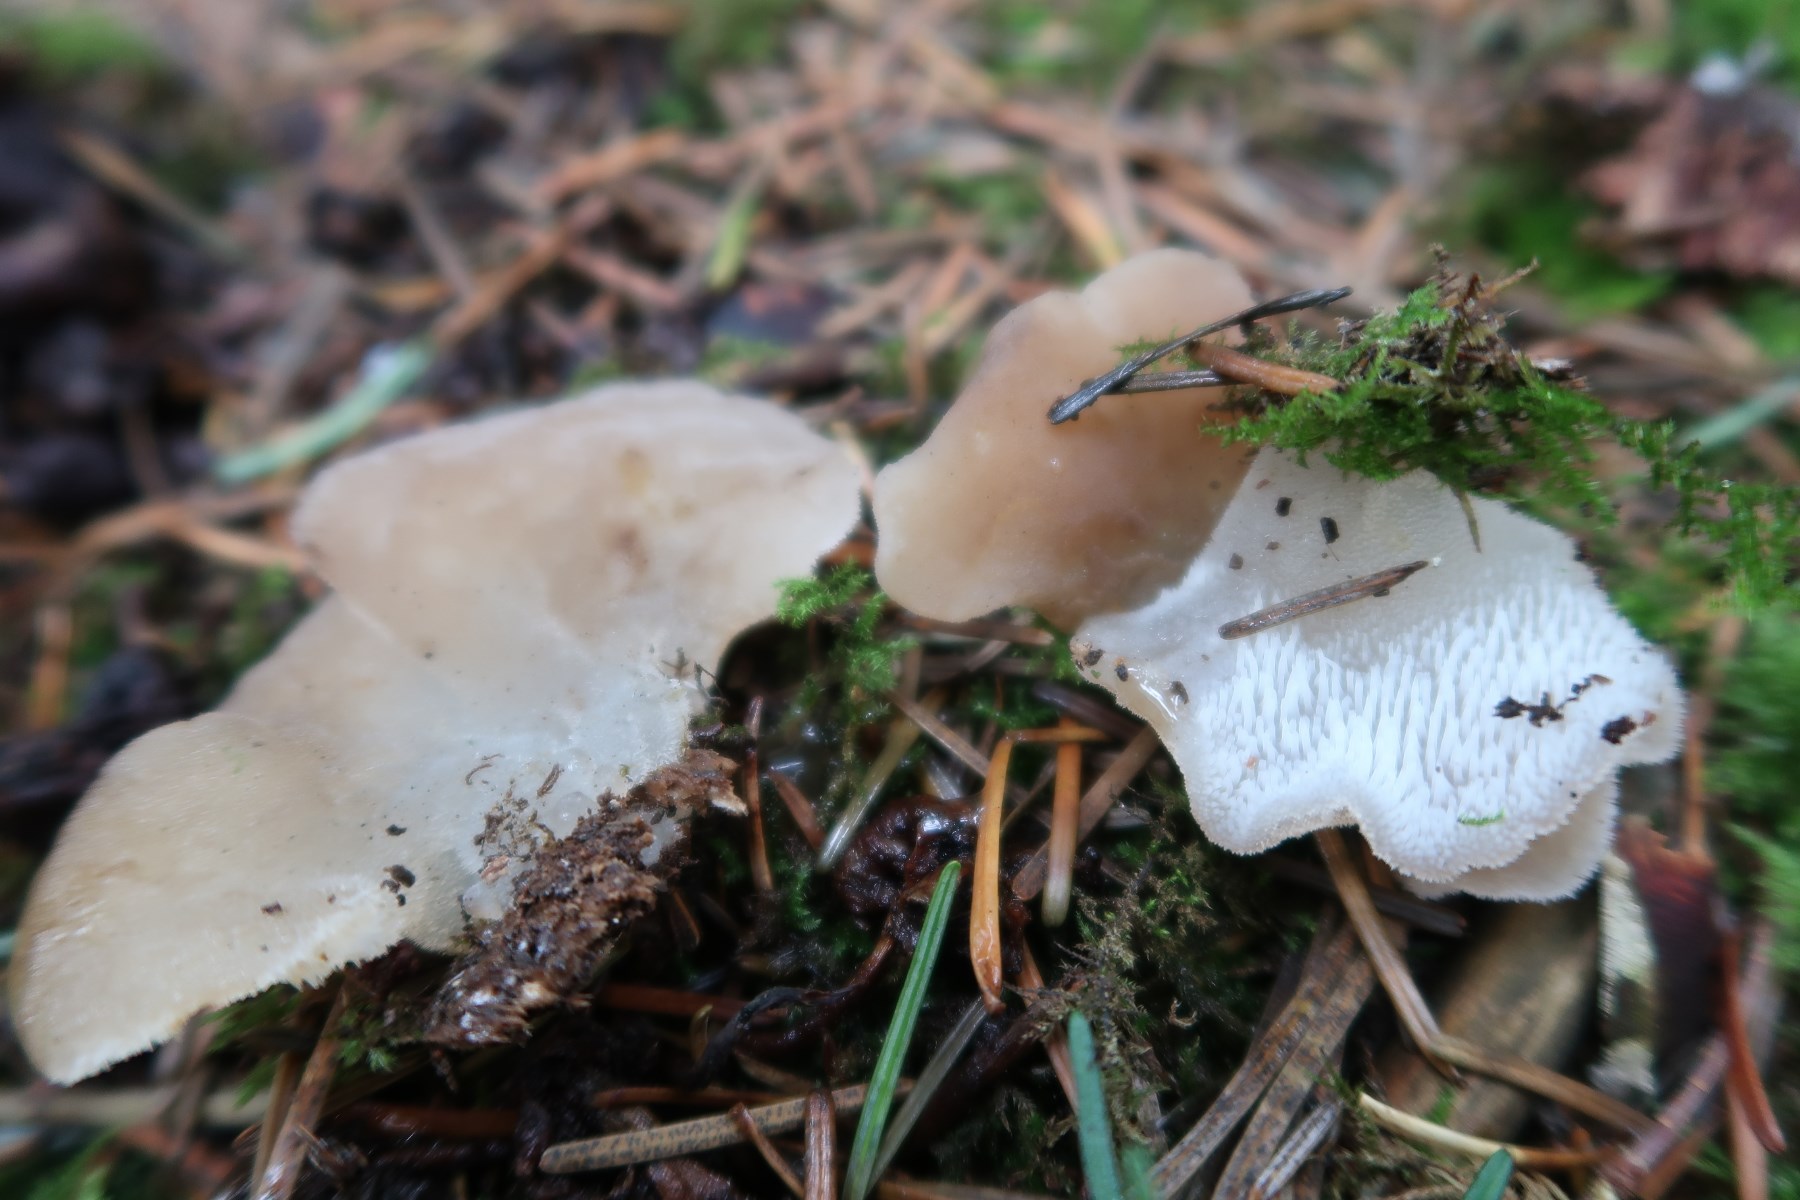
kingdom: Fungi
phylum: Basidiomycota
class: Agaricomycetes
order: Auriculariales
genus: Pseudohydnum
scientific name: Pseudohydnum gelatinosum
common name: bævretand
